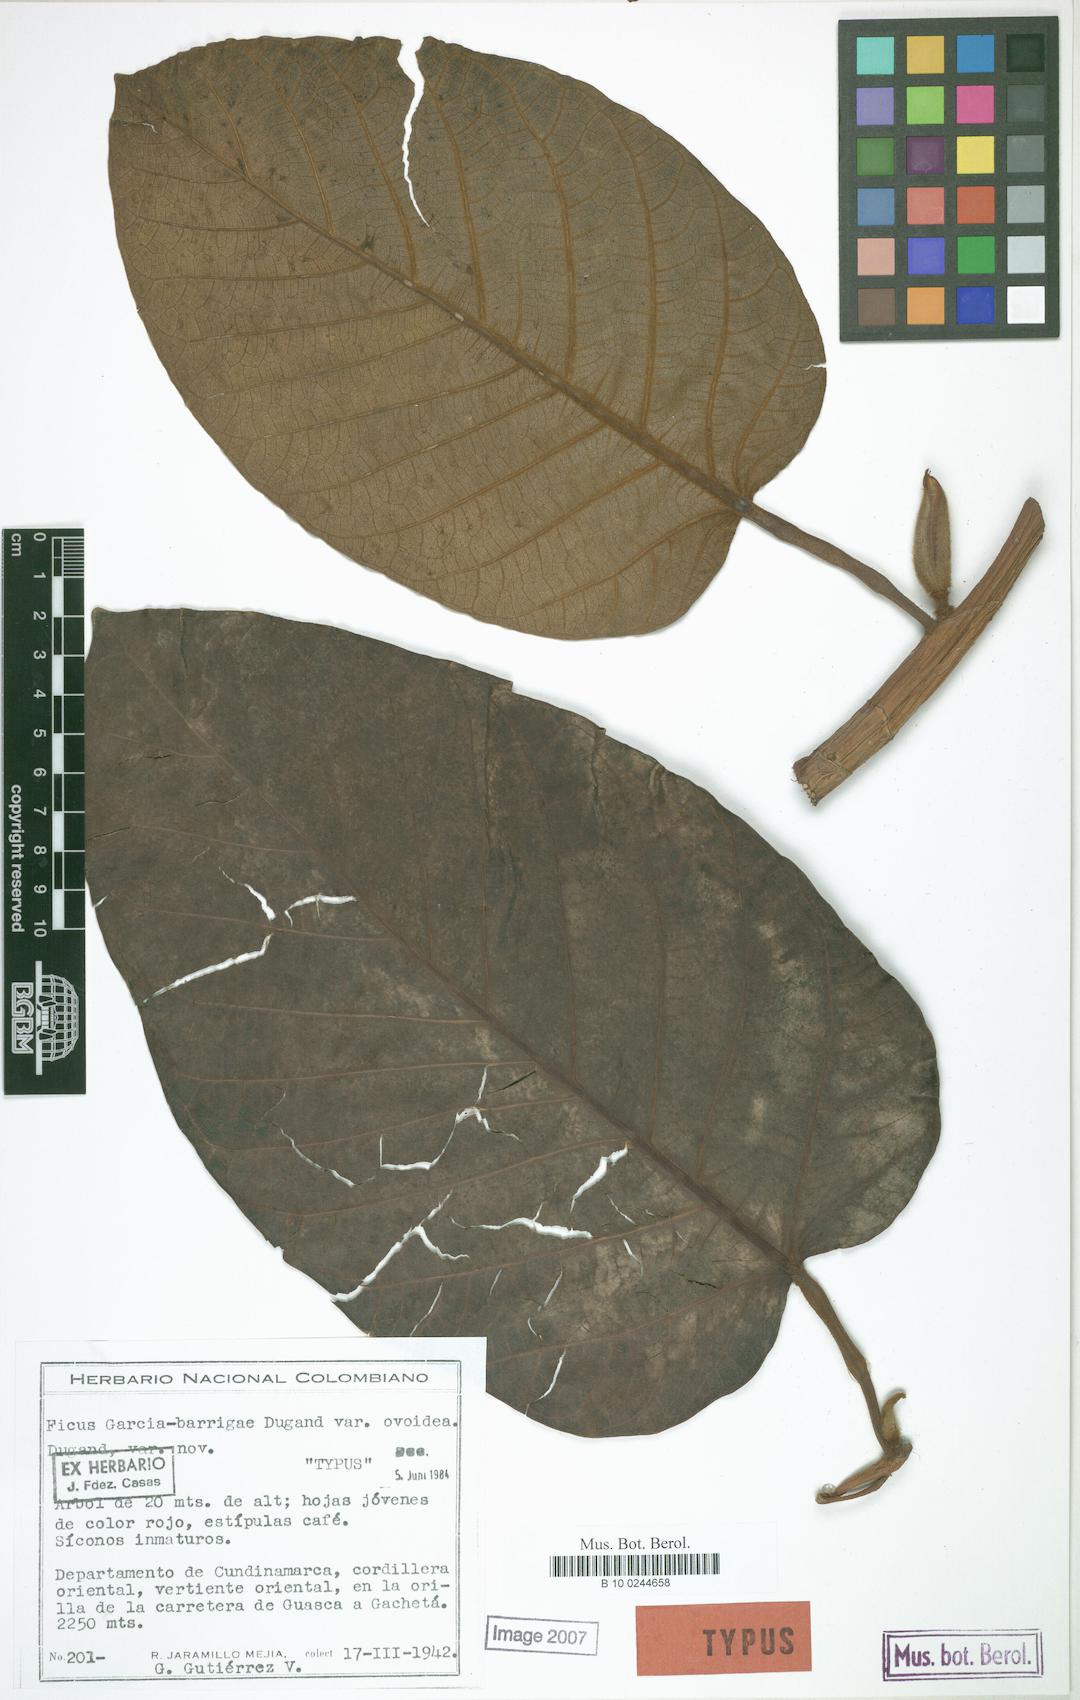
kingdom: Plantae
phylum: Tracheophyta
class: Magnoliopsida
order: Rosales
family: Moraceae
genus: Ficus
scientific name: Ficus cuatrecasana
